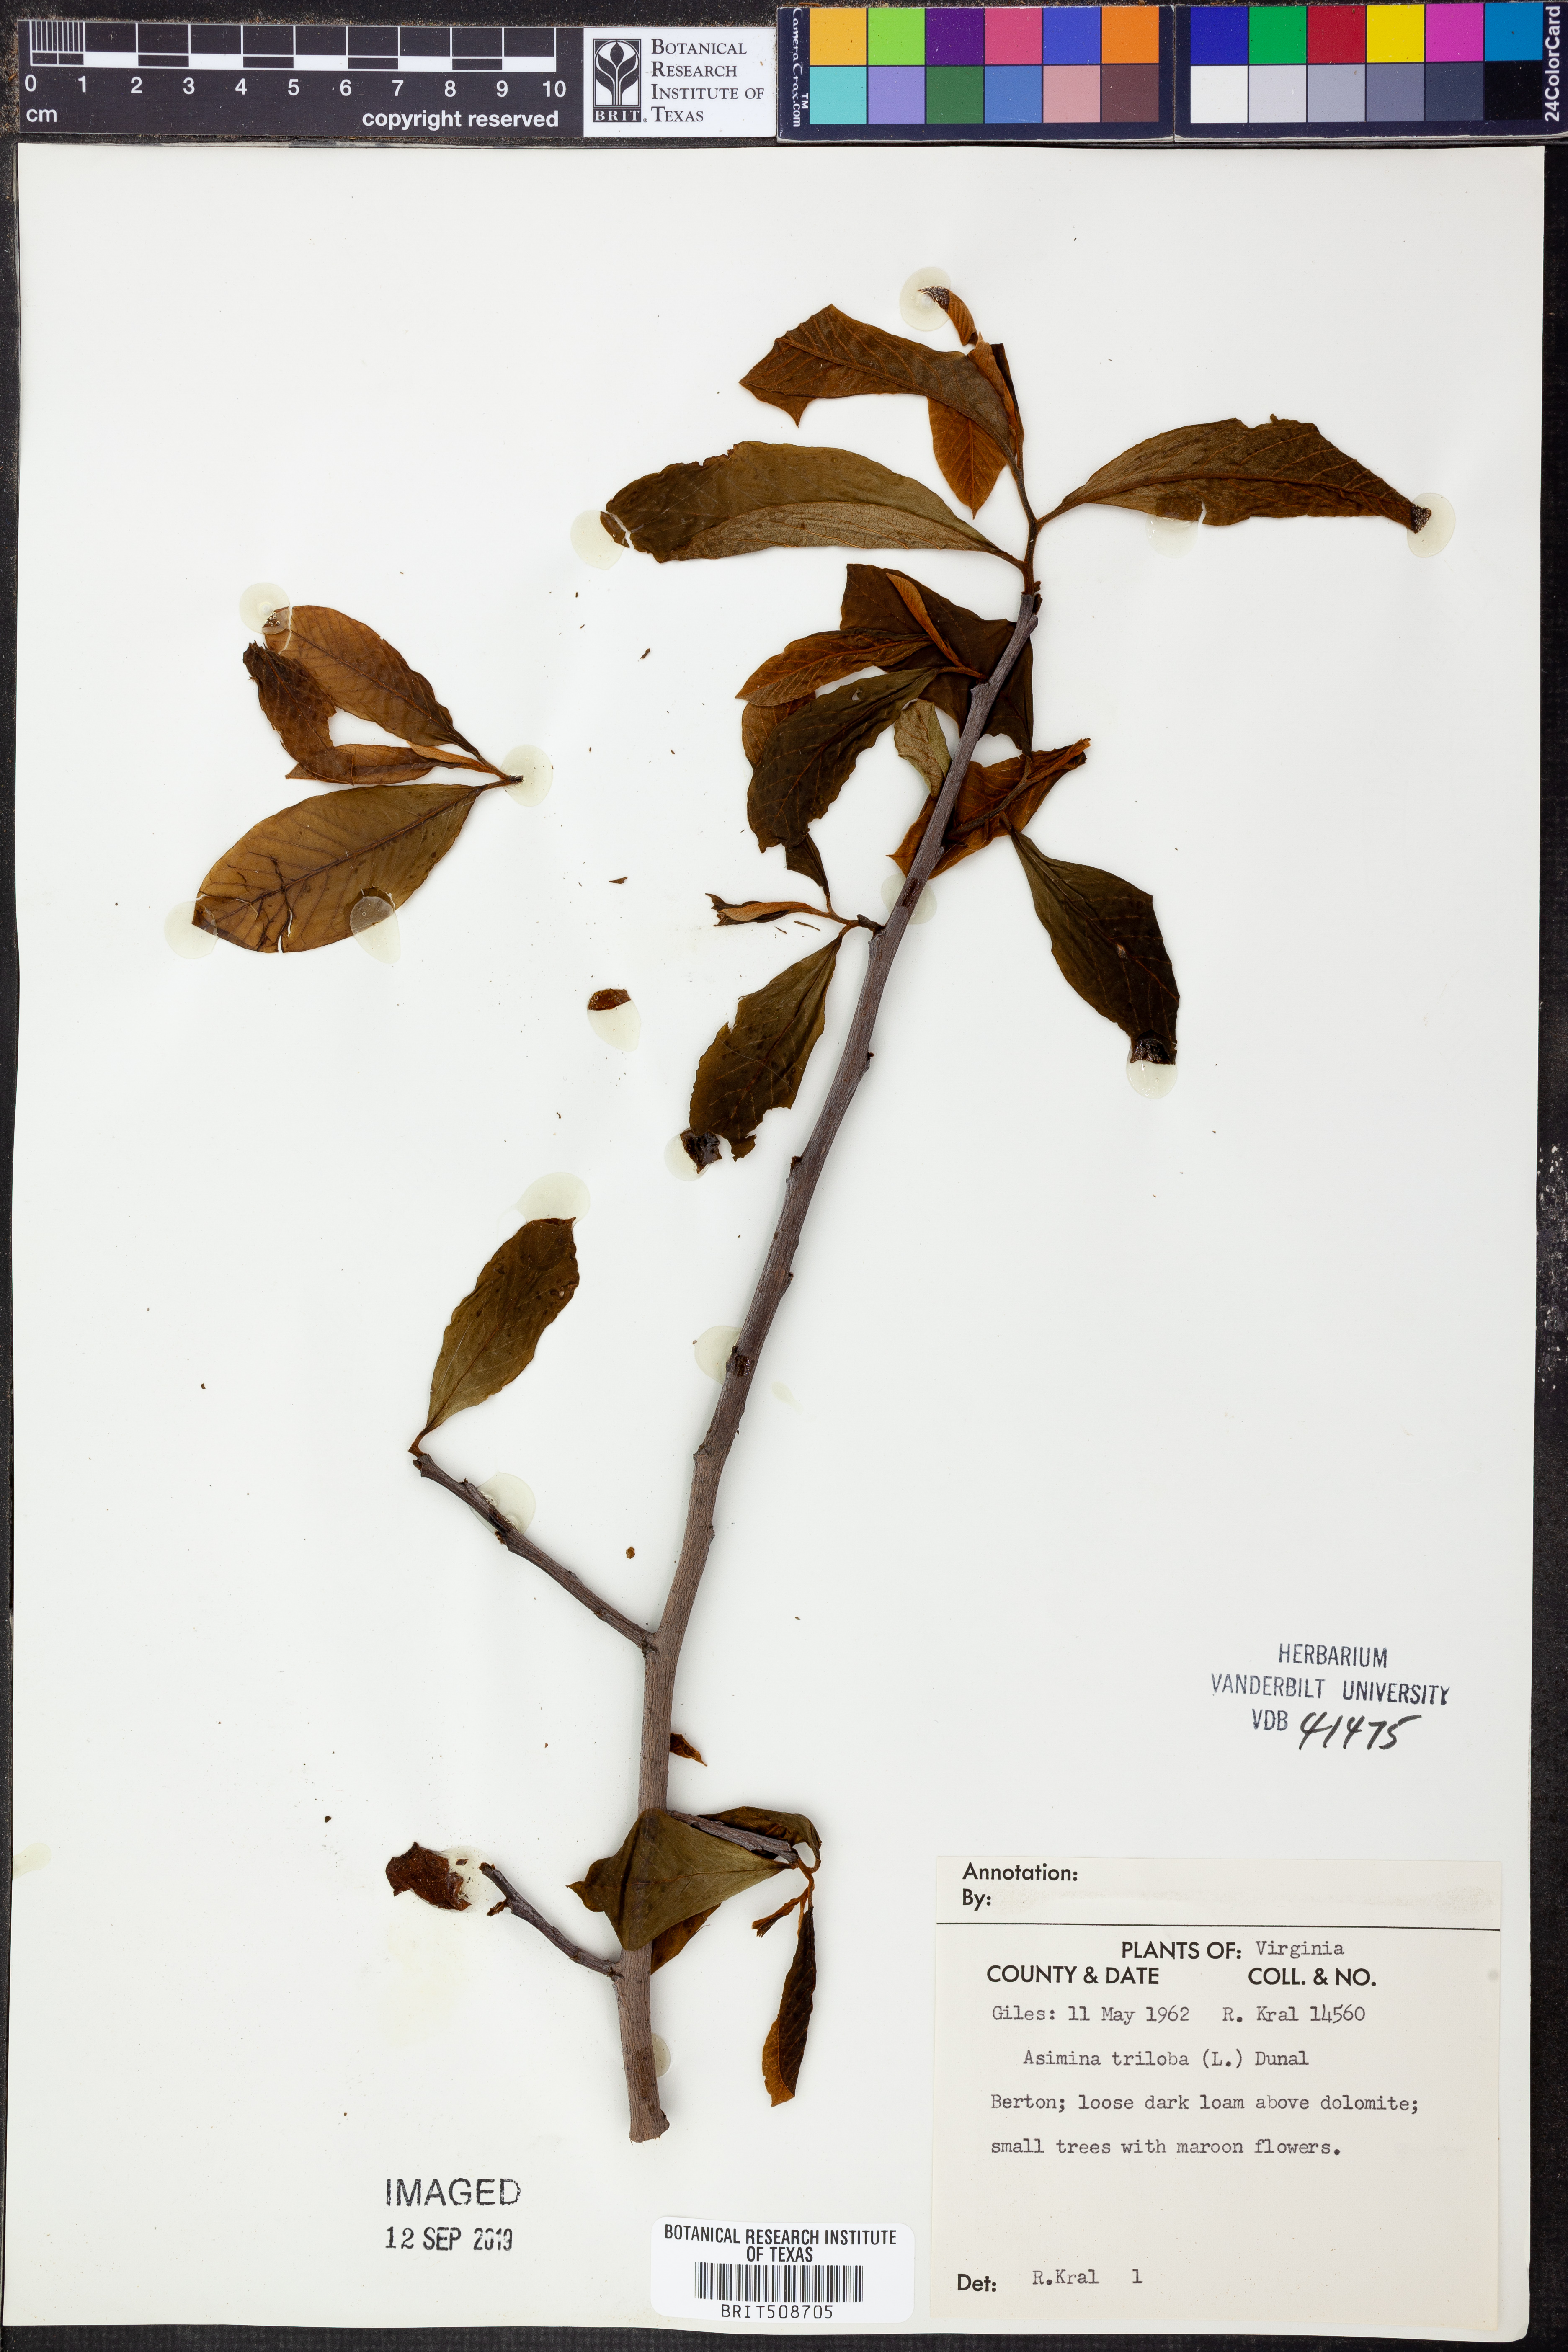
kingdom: Plantae
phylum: Tracheophyta
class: Magnoliopsida
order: Magnoliales
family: Annonaceae
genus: Asimina
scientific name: Asimina triloba
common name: Dog-banana
